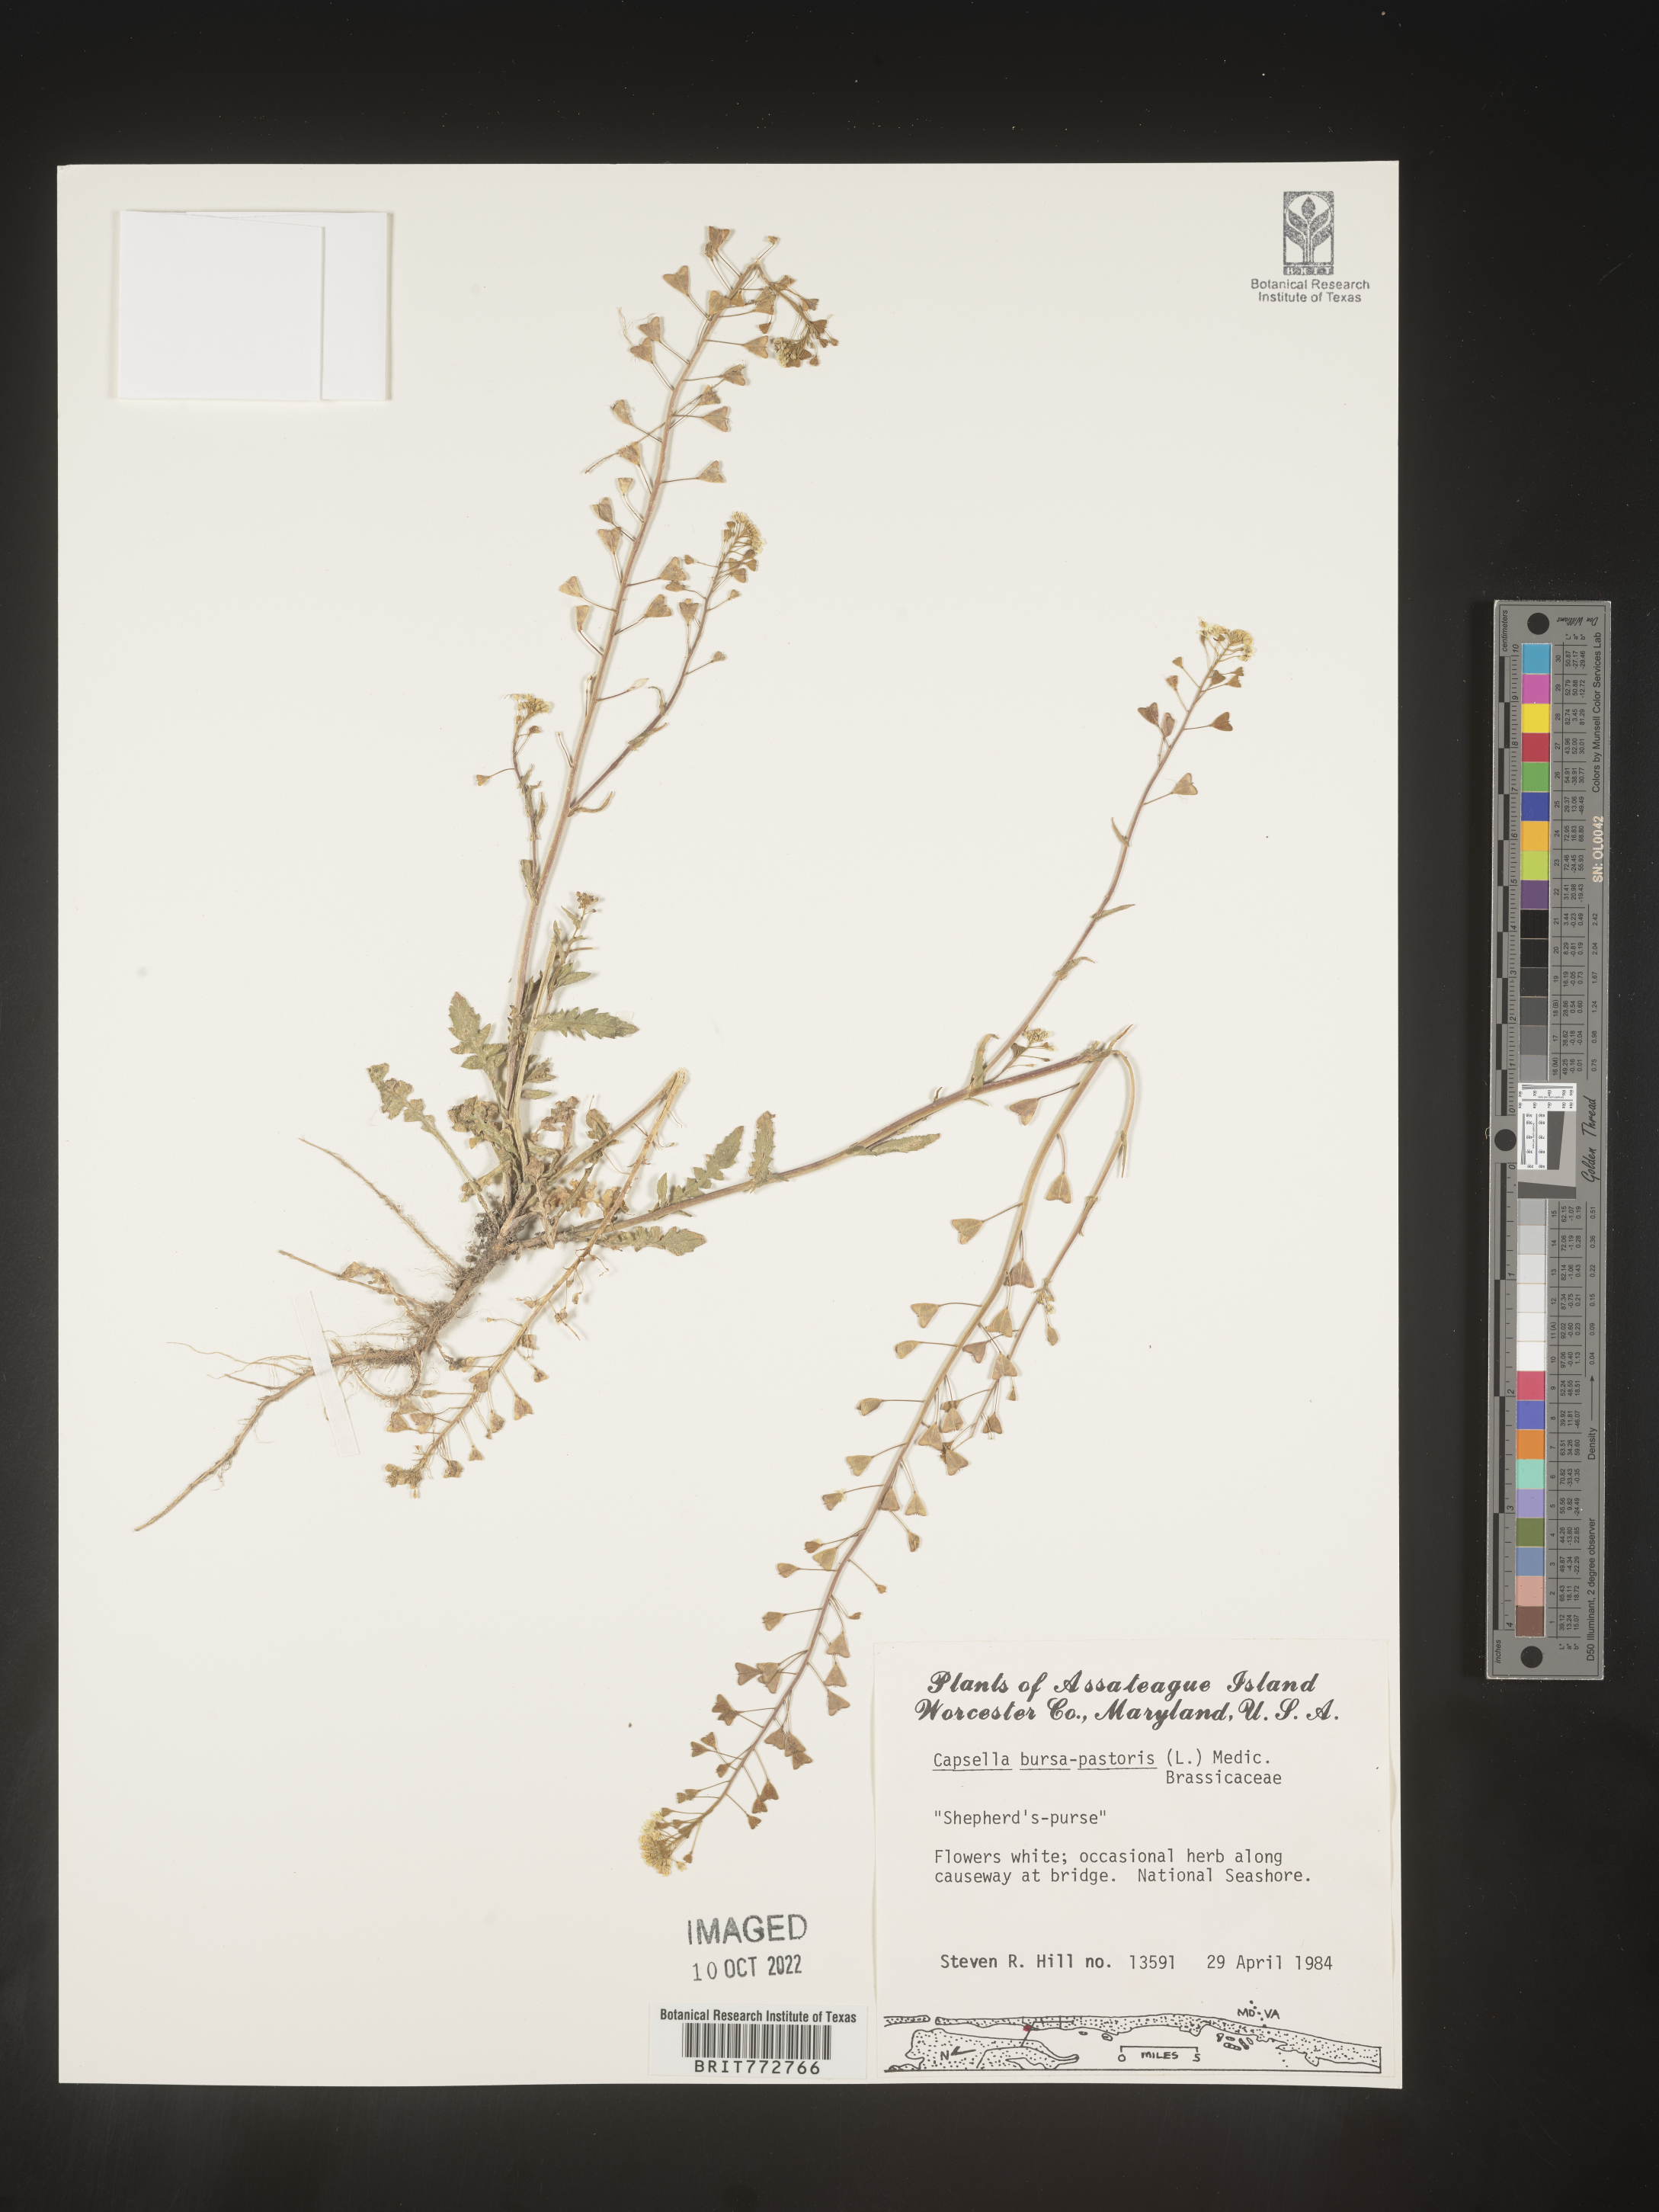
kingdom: Plantae
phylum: Tracheophyta
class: Magnoliopsida
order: Brassicales
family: Brassicaceae
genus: Capsella
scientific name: Capsella bursa-pastoris
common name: Shepherd's purse
